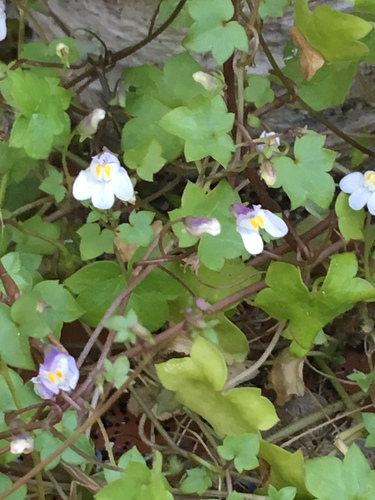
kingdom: Plantae
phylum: Tracheophyta
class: Magnoliopsida
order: Lamiales
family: Plantaginaceae
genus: Cymbalaria
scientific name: Cymbalaria muralis
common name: Ivy-leaved toadflax
